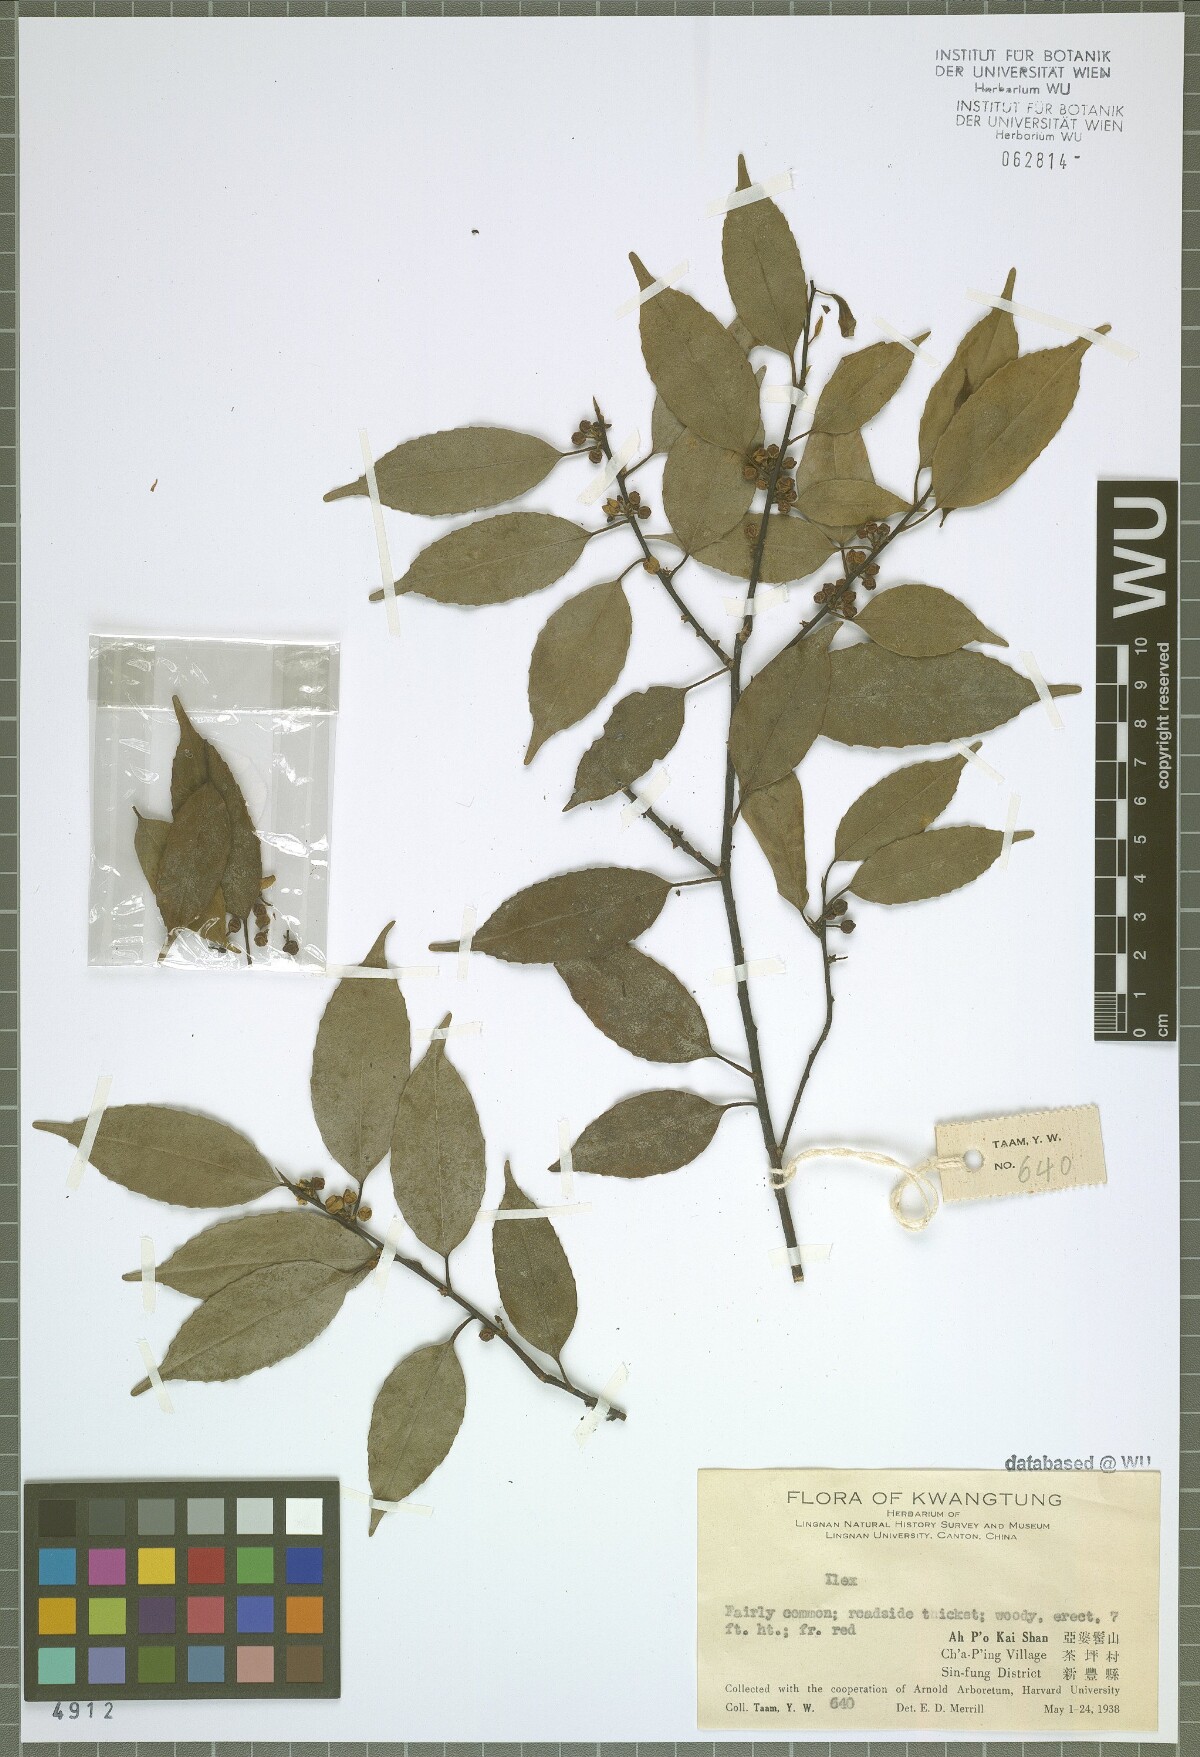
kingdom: Plantae
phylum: Tracheophyta
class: Magnoliopsida
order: Aquifoliales
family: Aquifoliaceae
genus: Ilex
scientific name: Ilex
